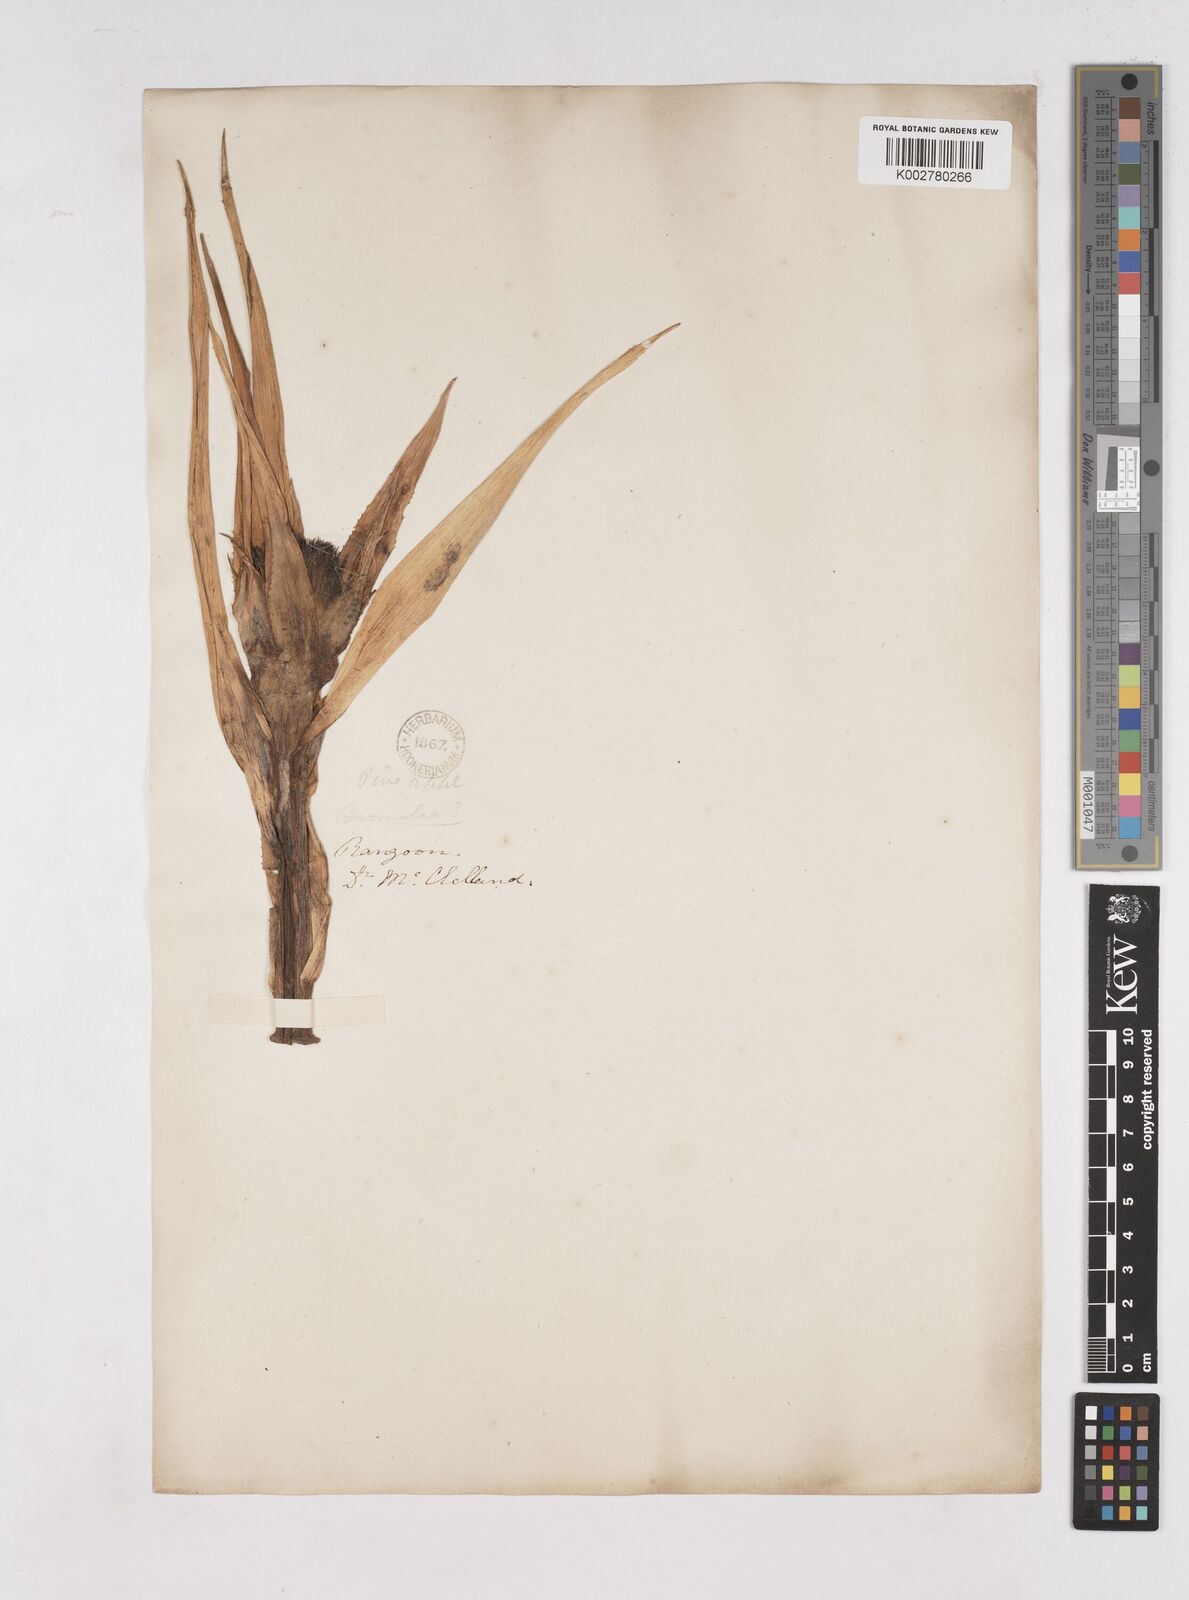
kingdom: Plantae
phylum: Tracheophyta
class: Liliopsida
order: Poales
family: Bromeliaceae
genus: Ananas
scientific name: Ananas comosus
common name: Pineapple
